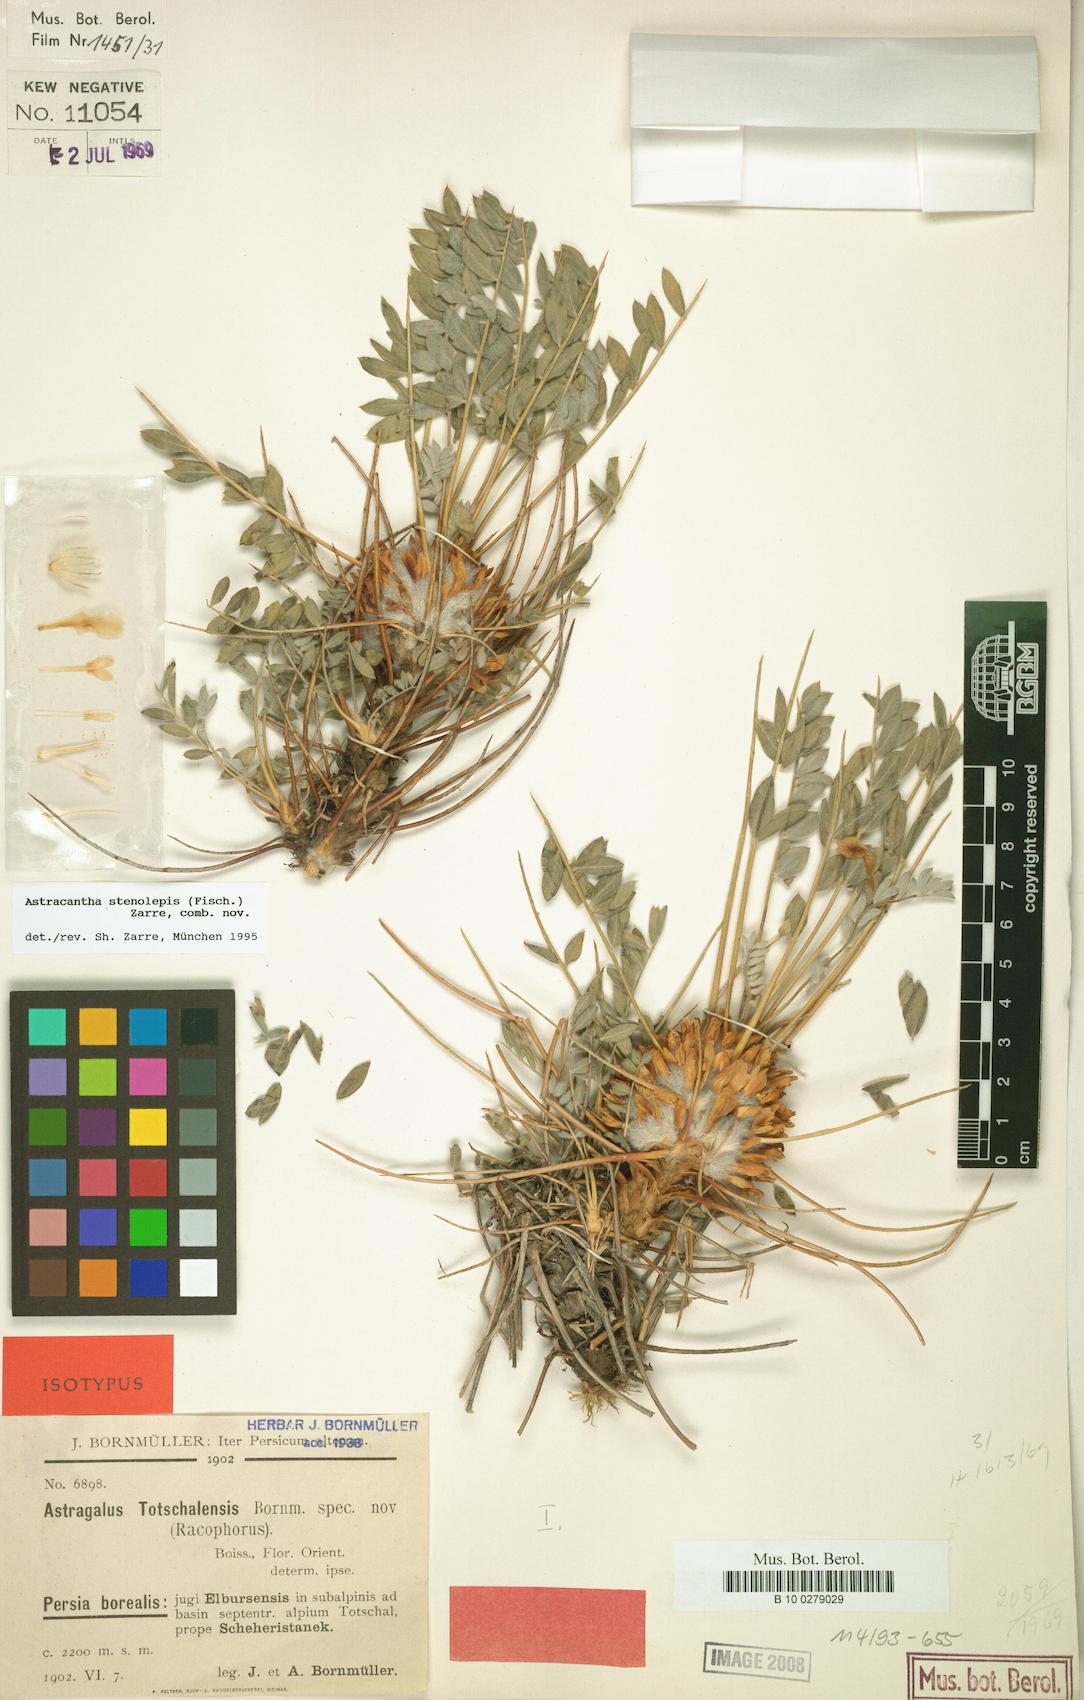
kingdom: Chromista
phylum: Cercozoa
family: Astracanthidae
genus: Astracantha
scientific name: Astracantha
